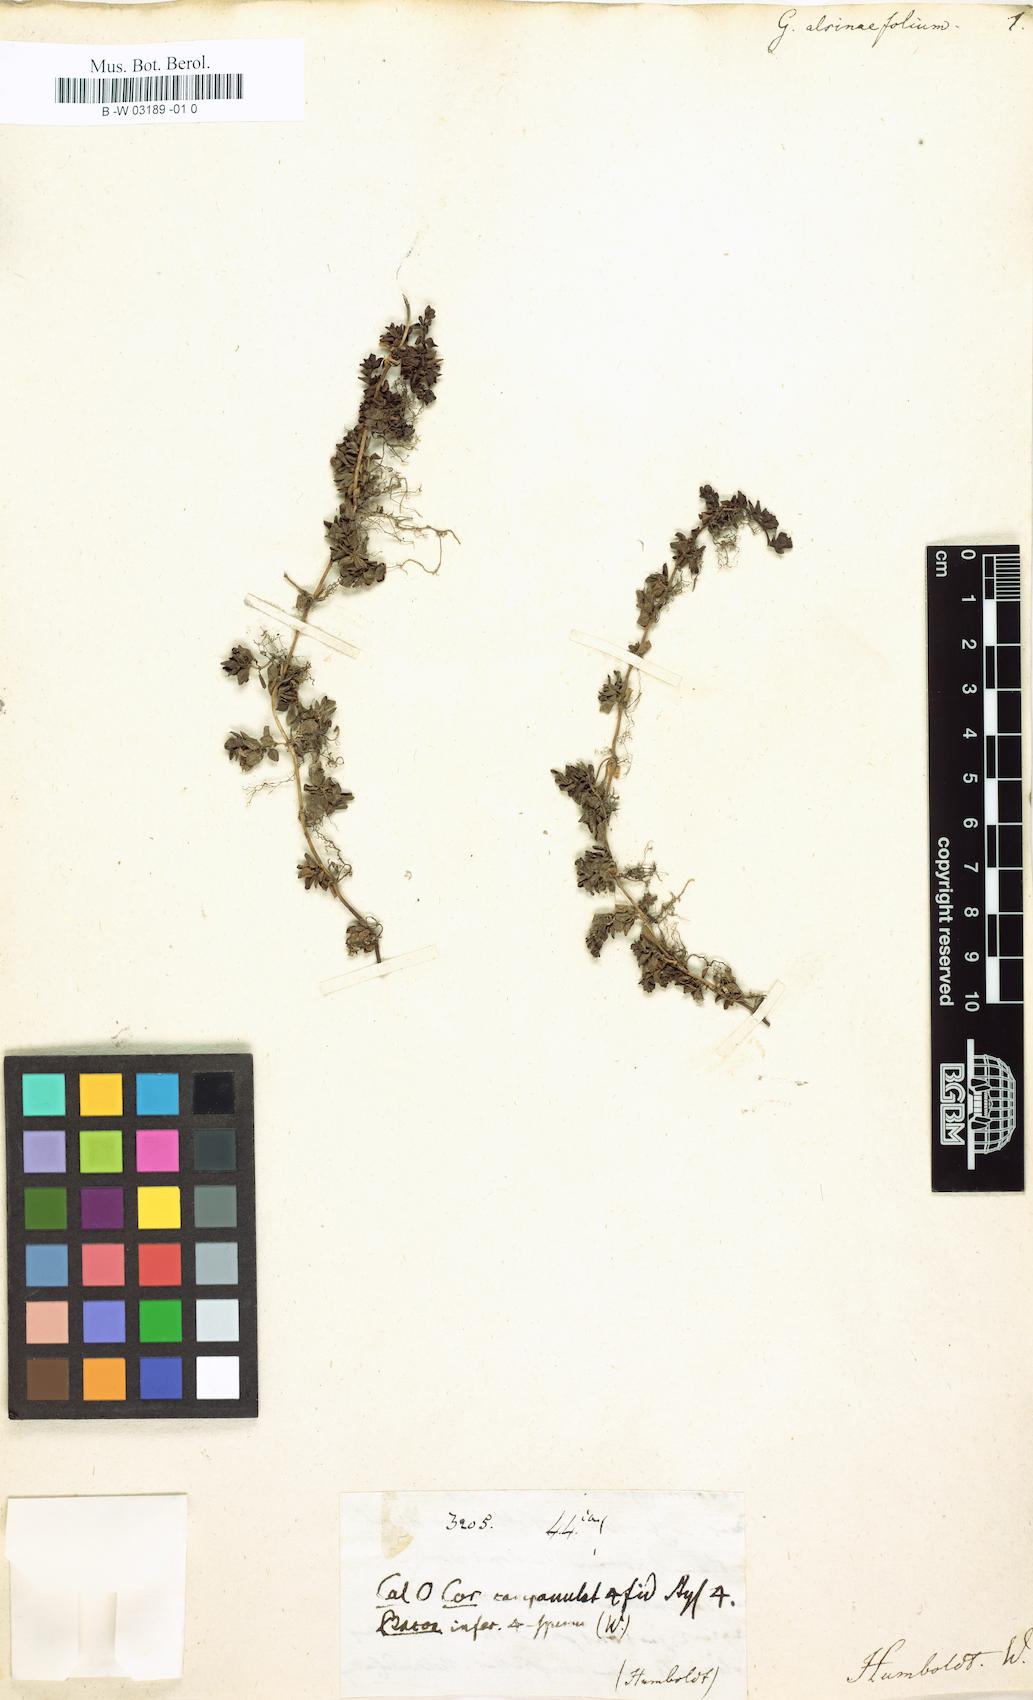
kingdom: Plantae
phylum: Tracheophyta
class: Magnoliopsida
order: Gentianales
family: Rubiaceae
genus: Nertera
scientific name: Nertera granadensis
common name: Beadplant
